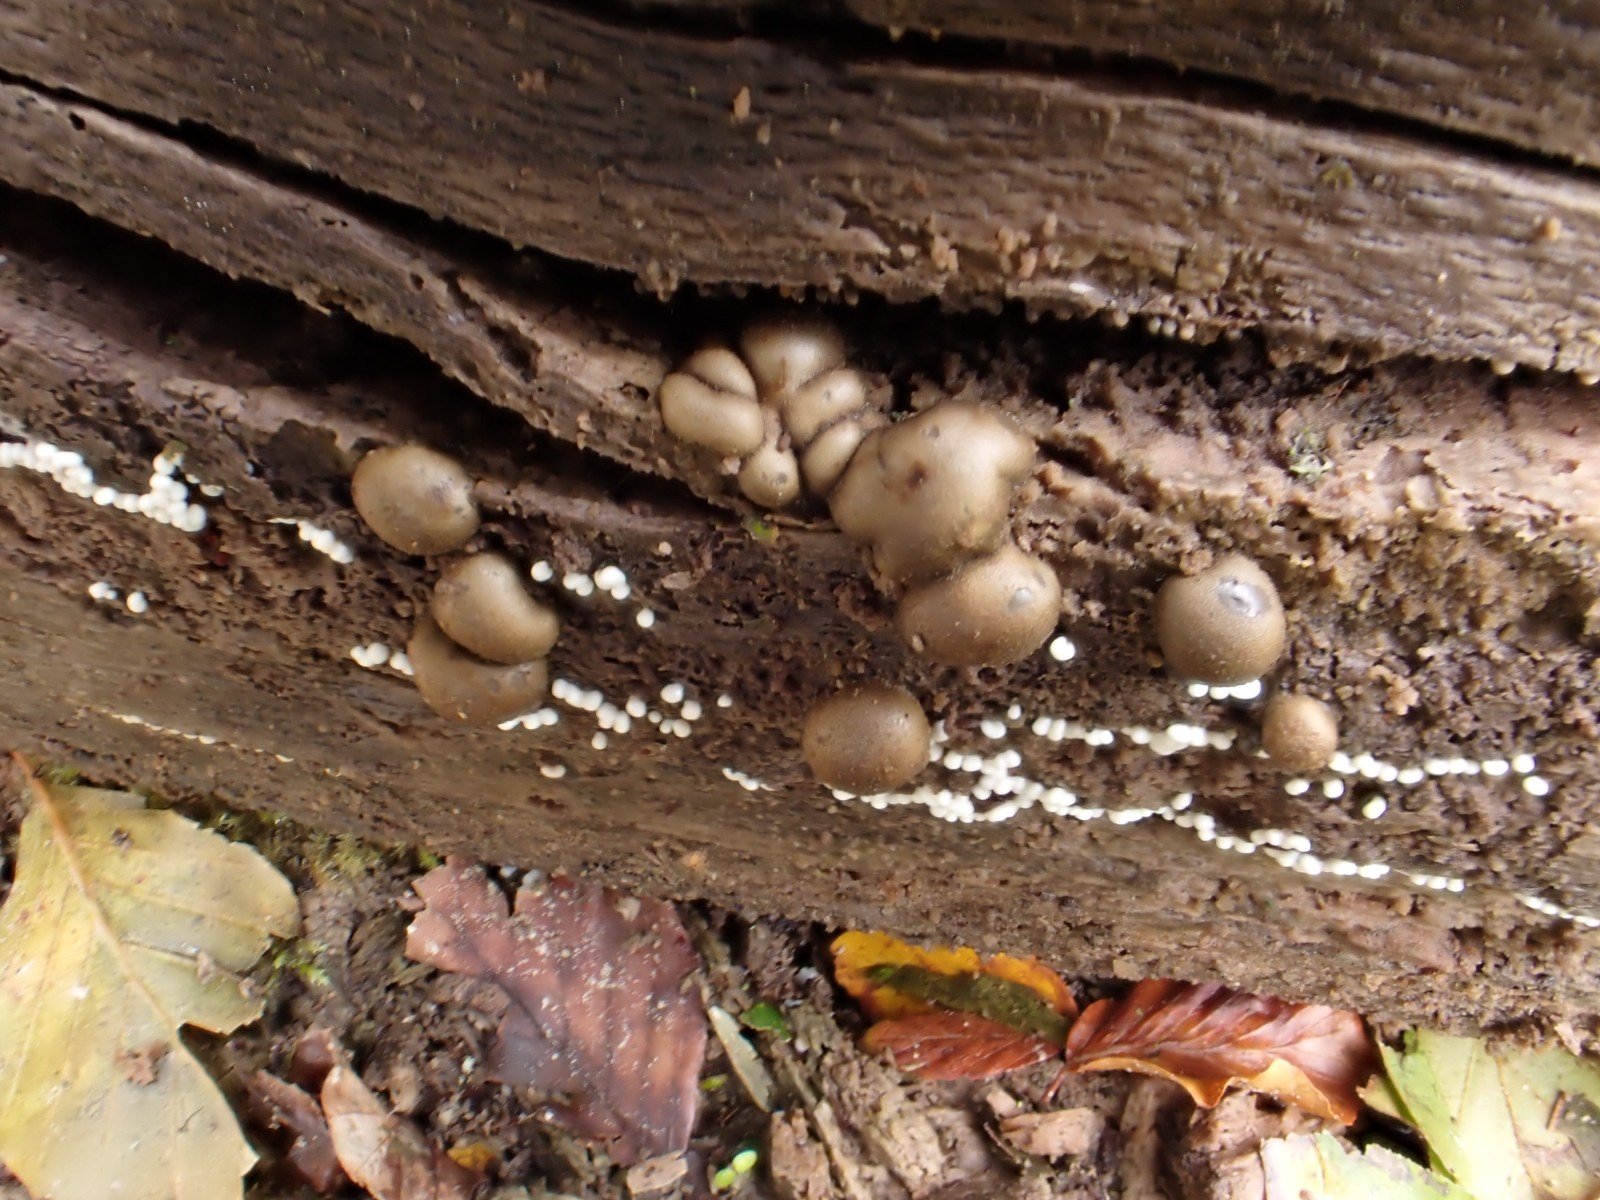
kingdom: Protozoa
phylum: Mycetozoa
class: Myxomycetes
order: Cribrariales
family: Tubiferaceae
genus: Lycogala
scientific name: Lycogala epidendrum
